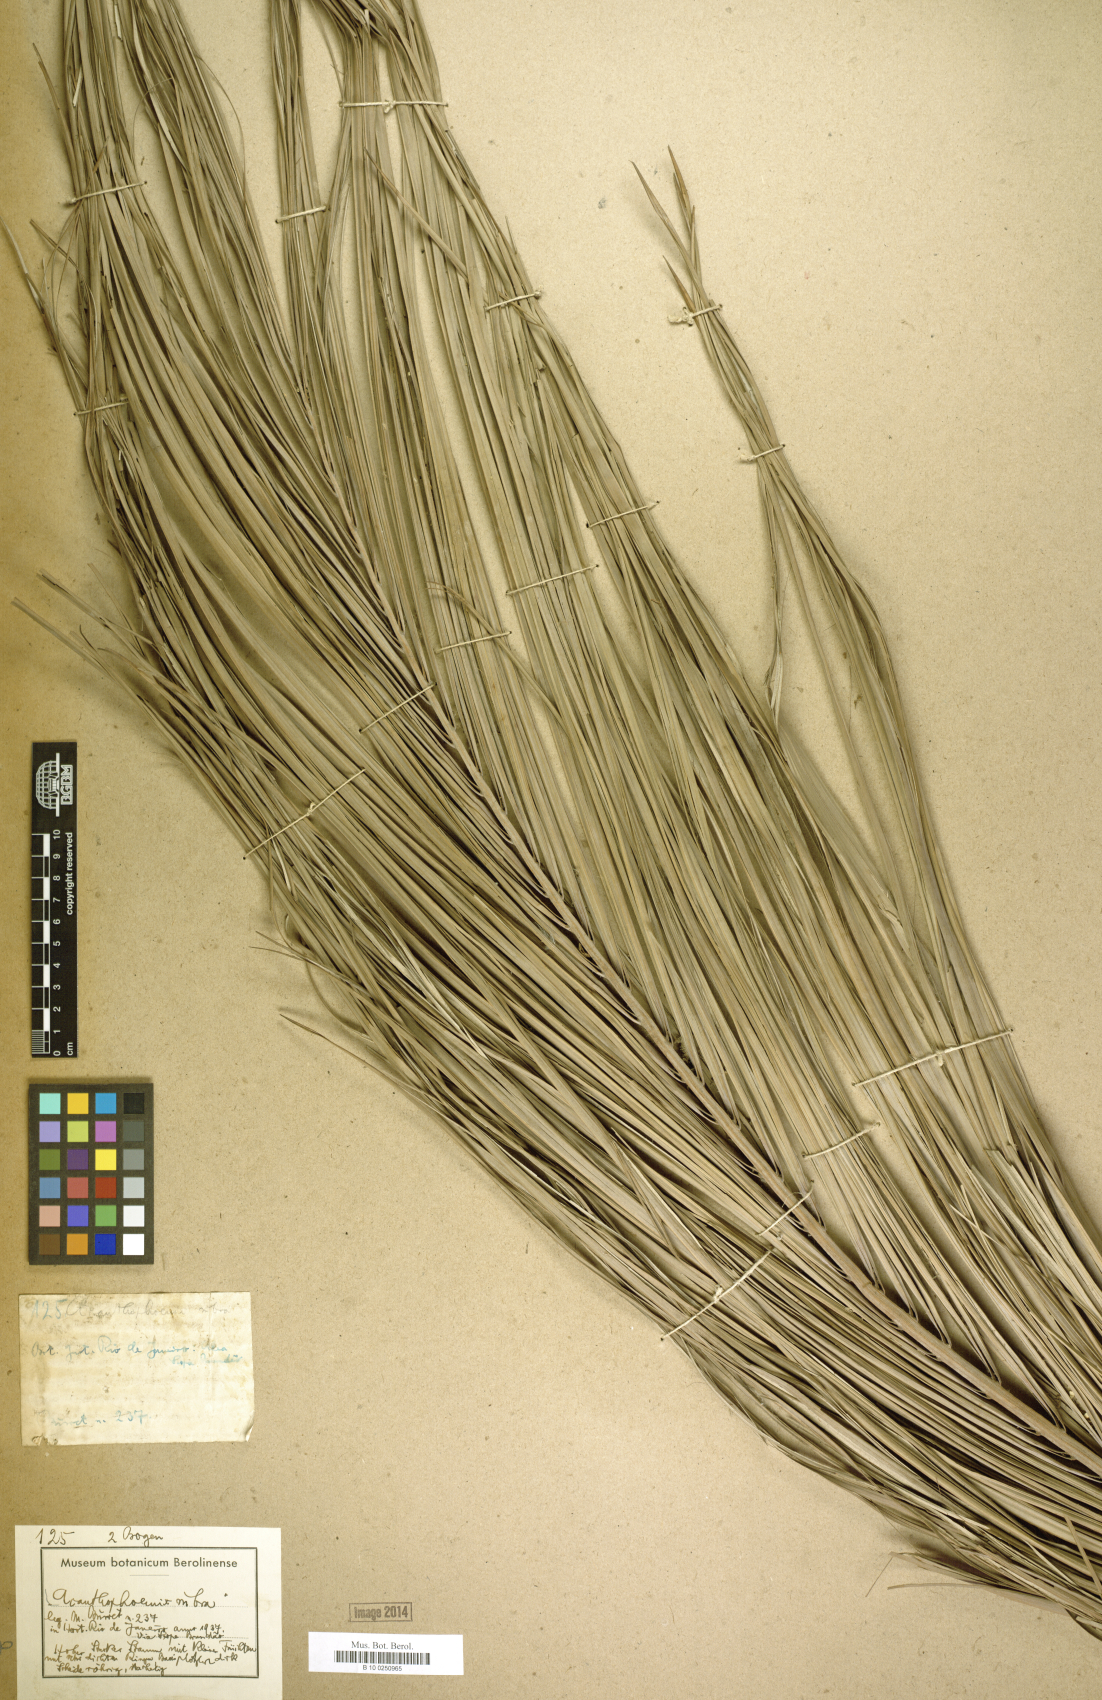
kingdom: Plantae
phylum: Tracheophyta
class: Liliopsida
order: Arecales
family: Arecaceae
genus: Acanthophoenix
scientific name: Acanthophoenix rubra
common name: Barbel palm
